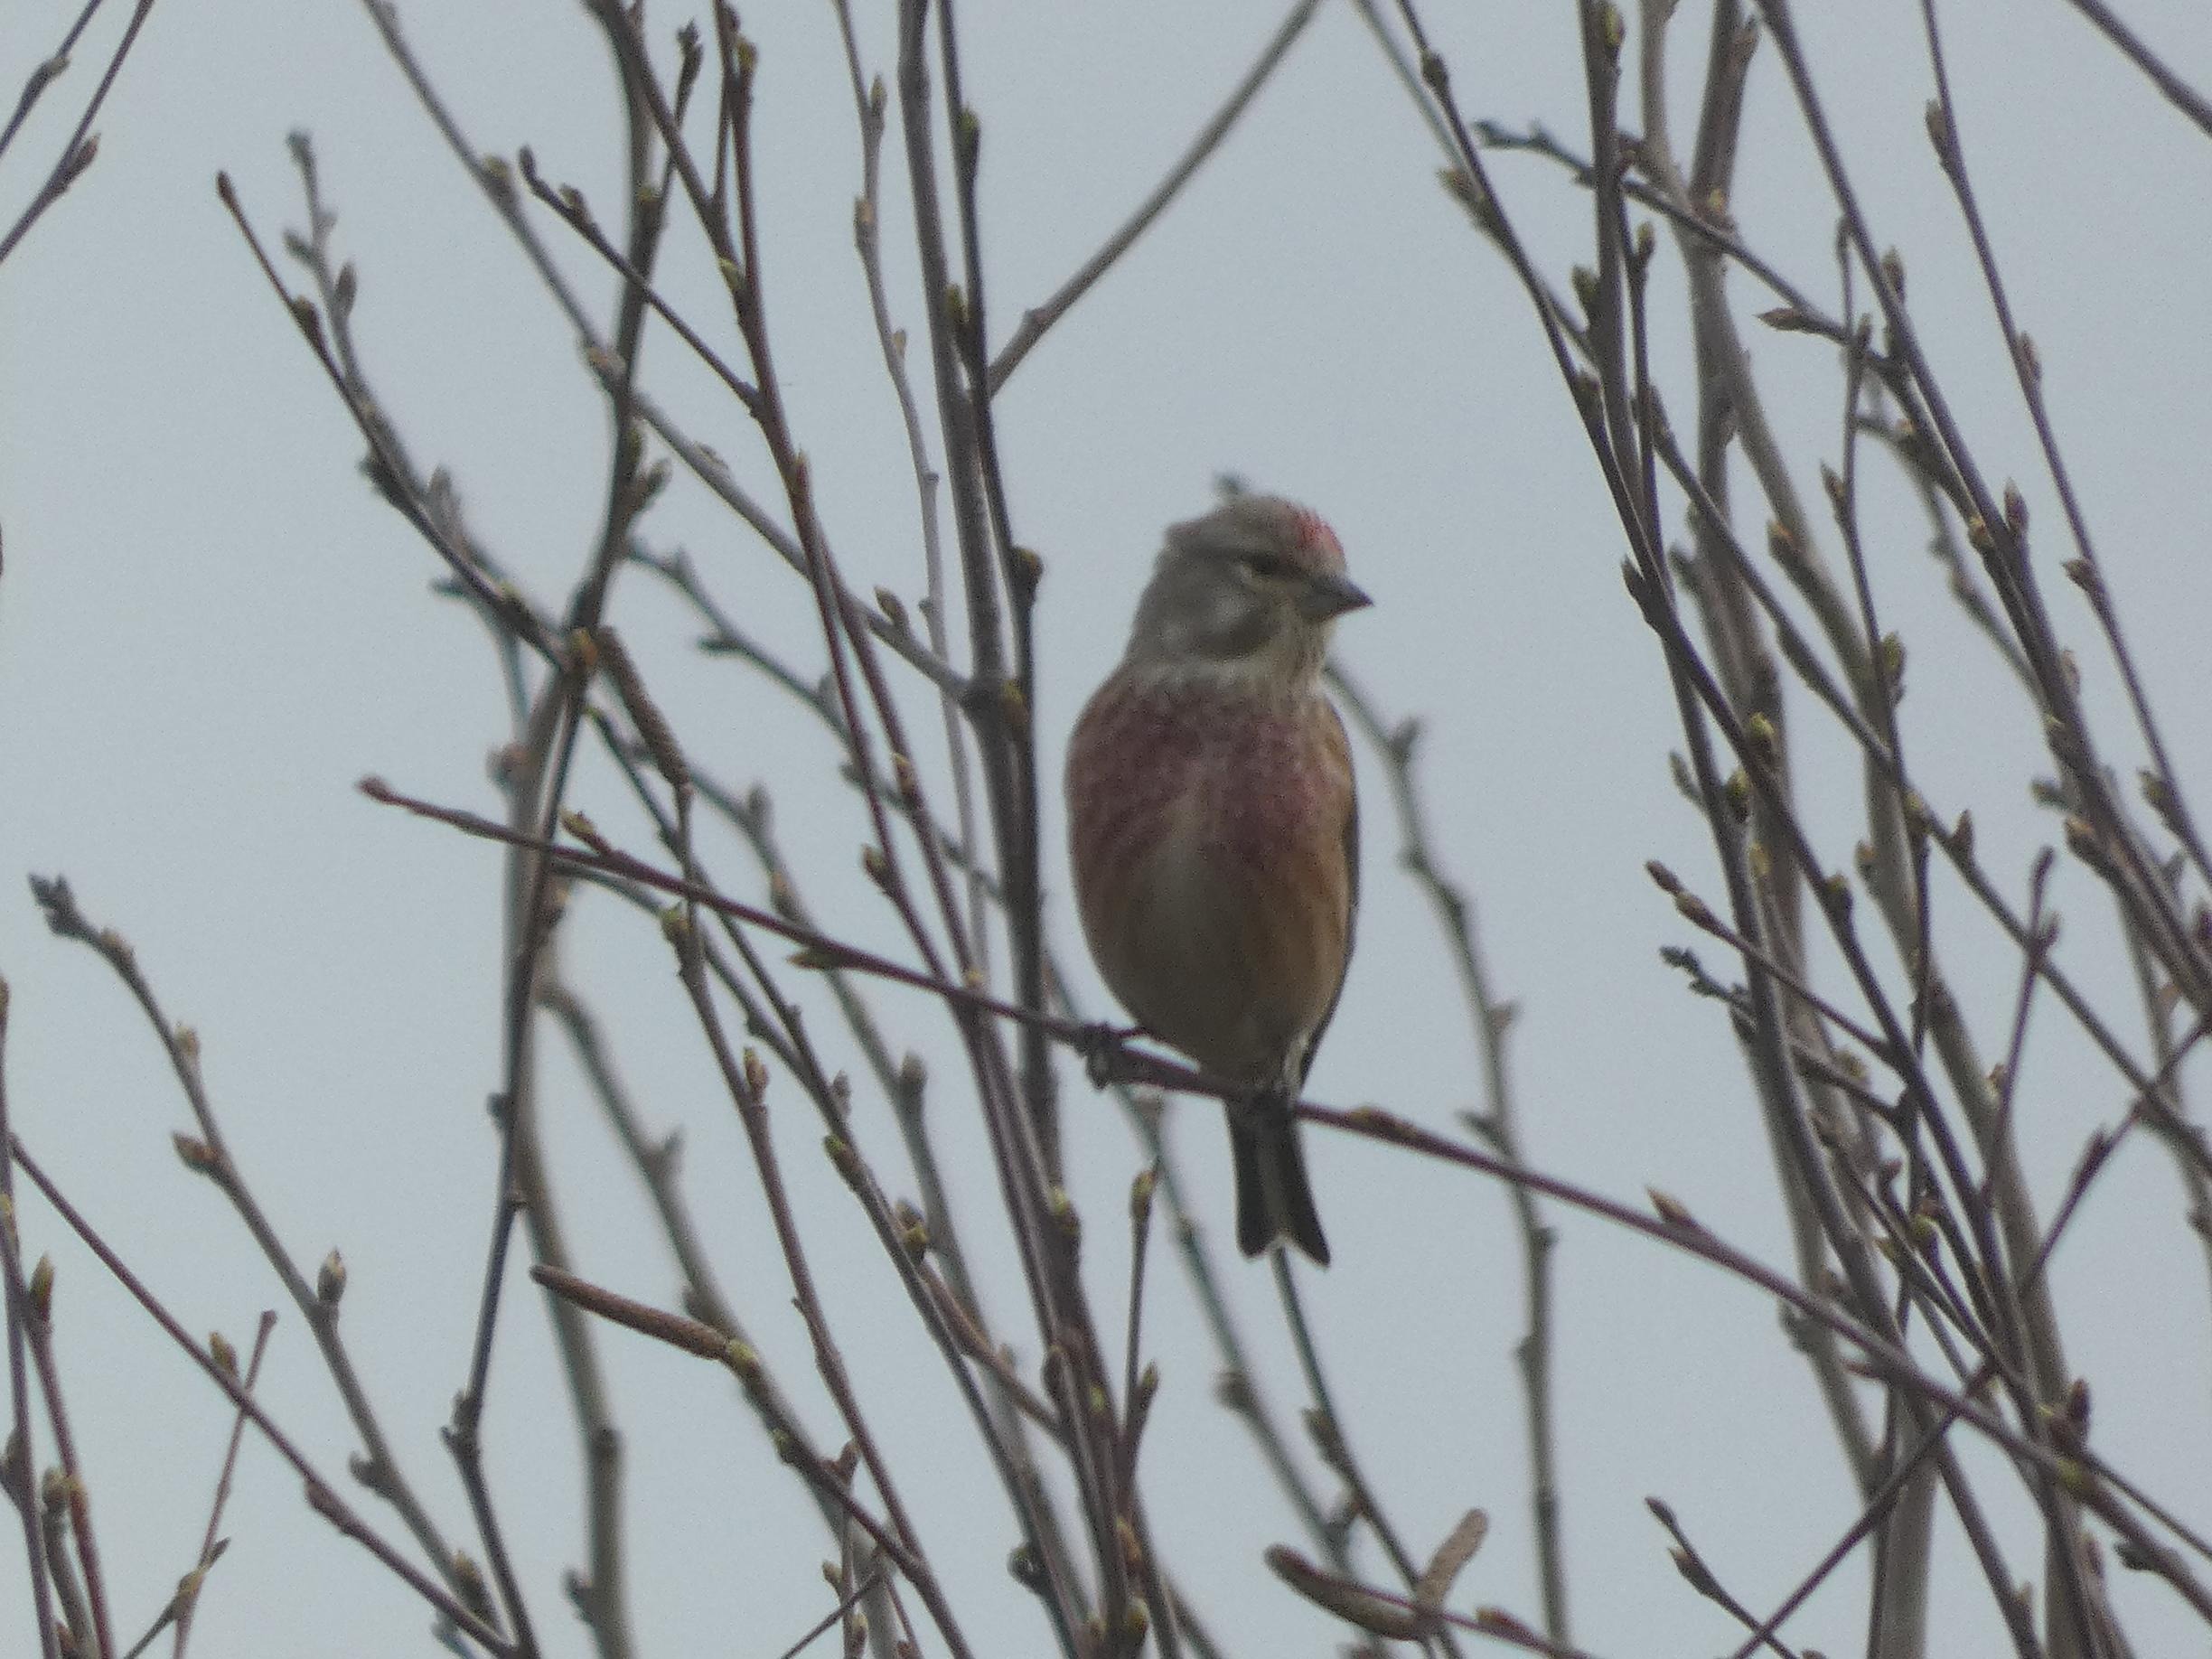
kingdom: Animalia
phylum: Chordata
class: Aves
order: Passeriformes
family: Fringillidae
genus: Linaria
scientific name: Linaria cannabina
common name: Tornirisk
